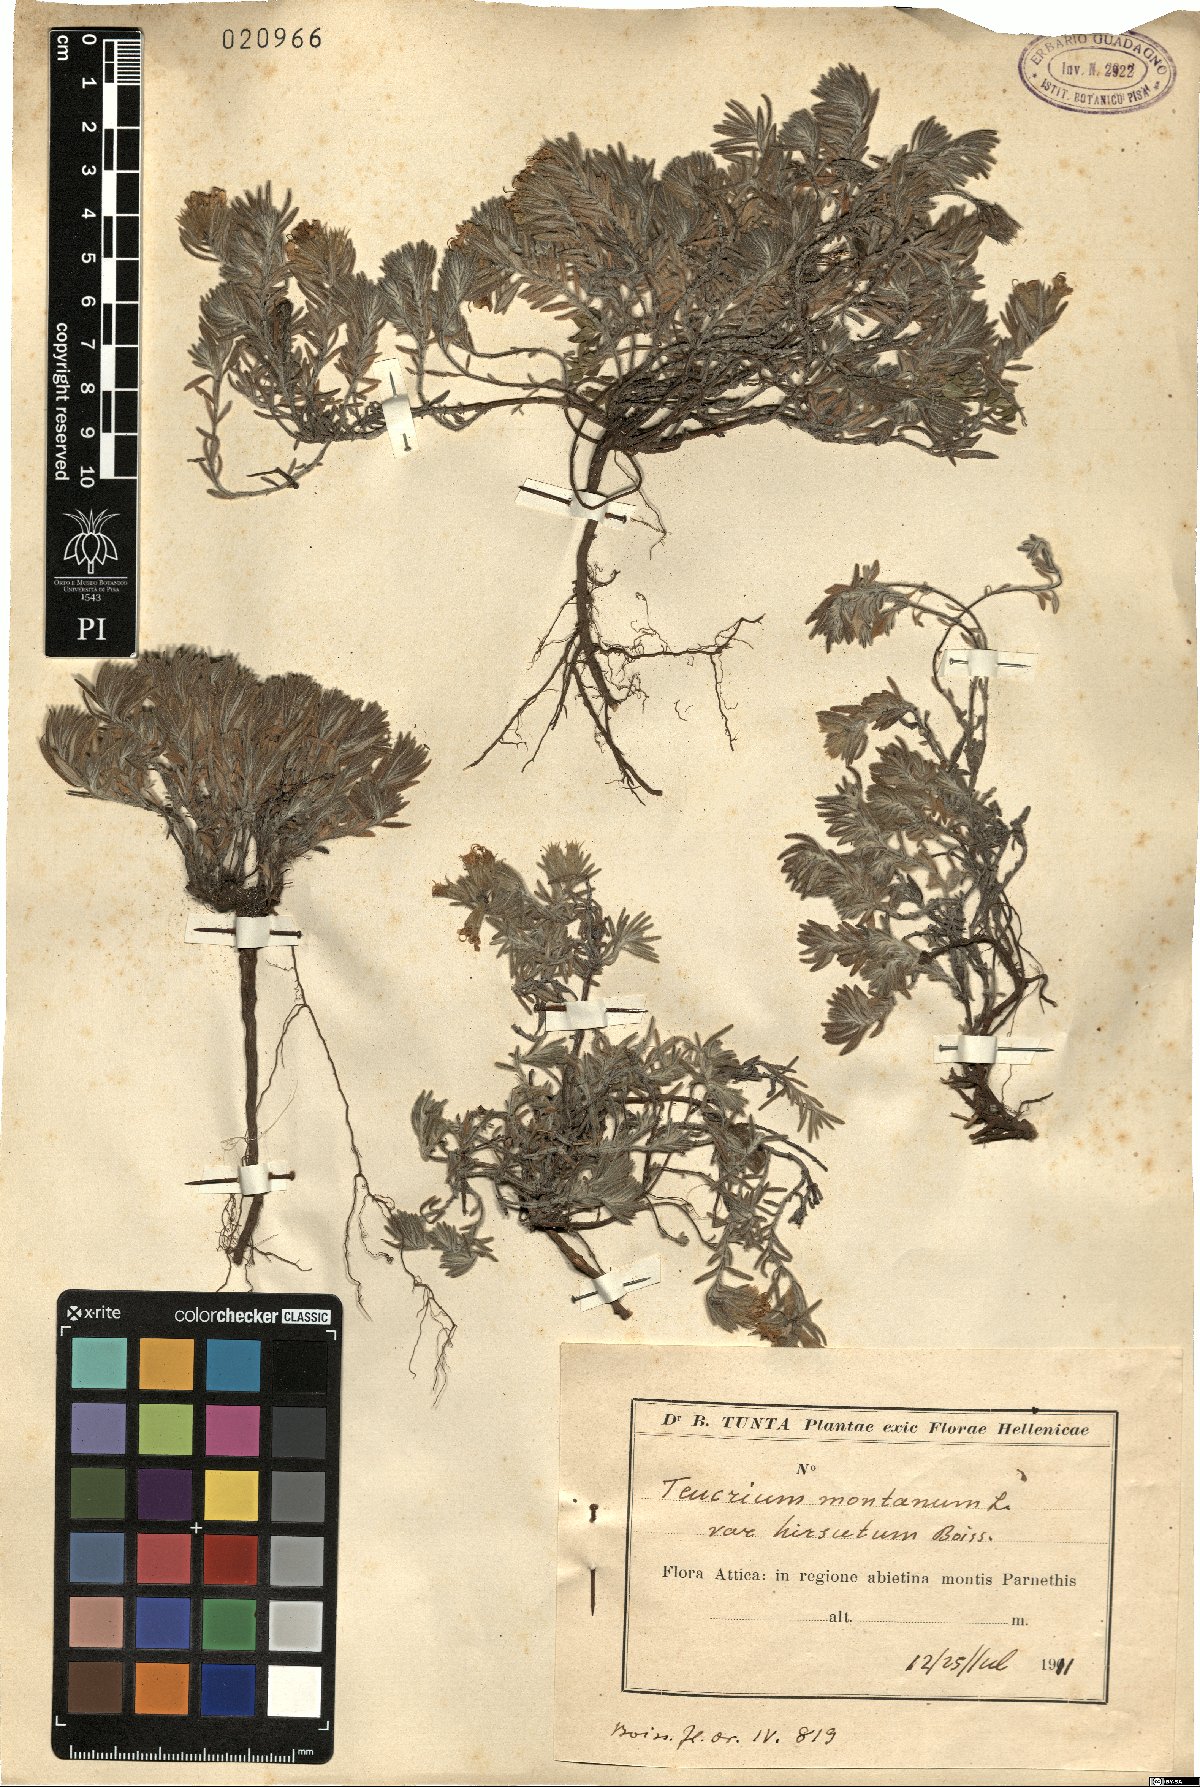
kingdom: Plantae
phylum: Tracheophyta
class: Magnoliopsida
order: Lamiales
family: Lamiaceae
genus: Teucrium
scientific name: Teucrium montanum
